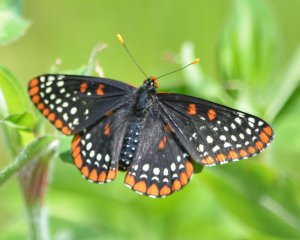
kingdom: Animalia
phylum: Arthropoda
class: Insecta
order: Lepidoptera
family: Nymphalidae
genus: Euphydryas
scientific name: Euphydryas phaeton
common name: Baltimore Checkerspot
